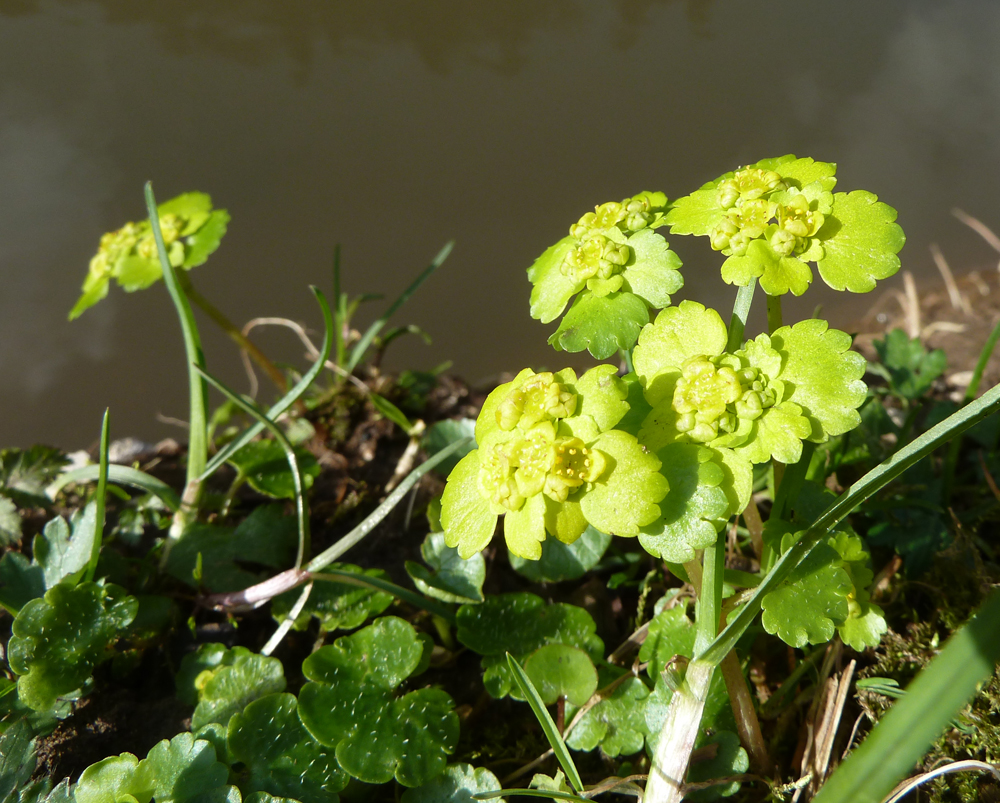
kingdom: Plantae
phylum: Tracheophyta
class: Magnoliopsida
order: Saxifragales
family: Saxifragaceae
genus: Chrysosplenium
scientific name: Chrysosplenium alternifolium
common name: Alternate-leaved golden-saxifrage
